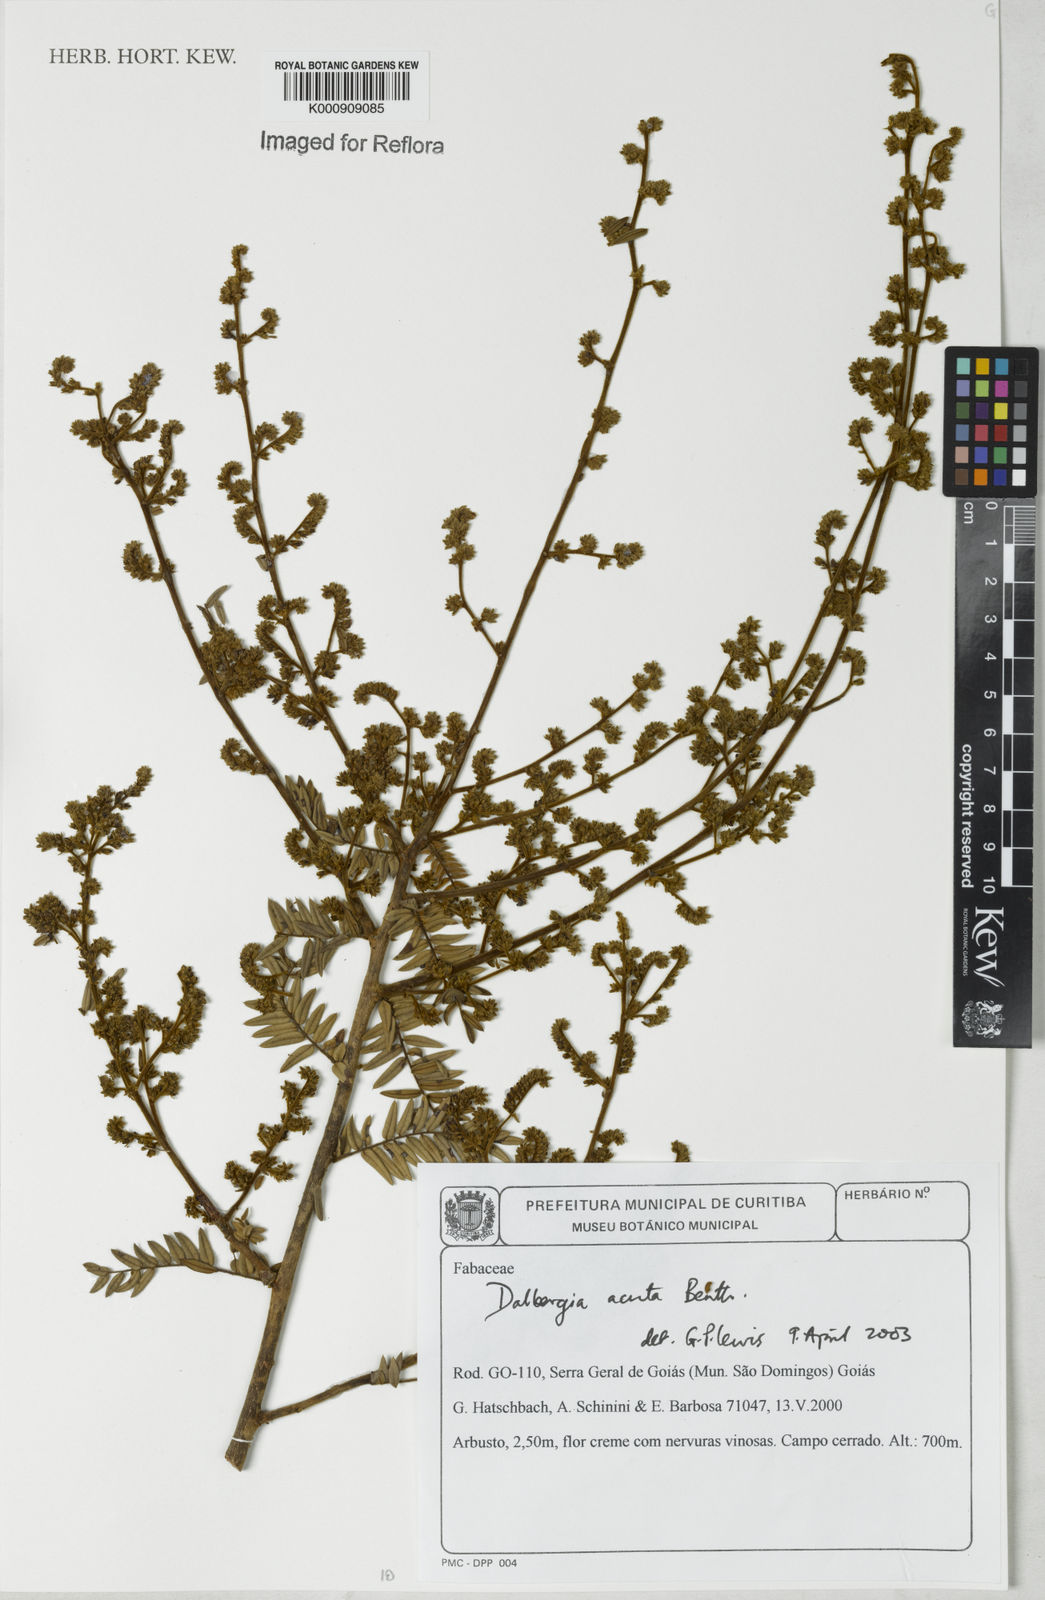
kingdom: Plantae
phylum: Tracheophyta
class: Magnoliopsida
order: Fabales
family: Fabaceae
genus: Dalbergia
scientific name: Dalbergia acuta
